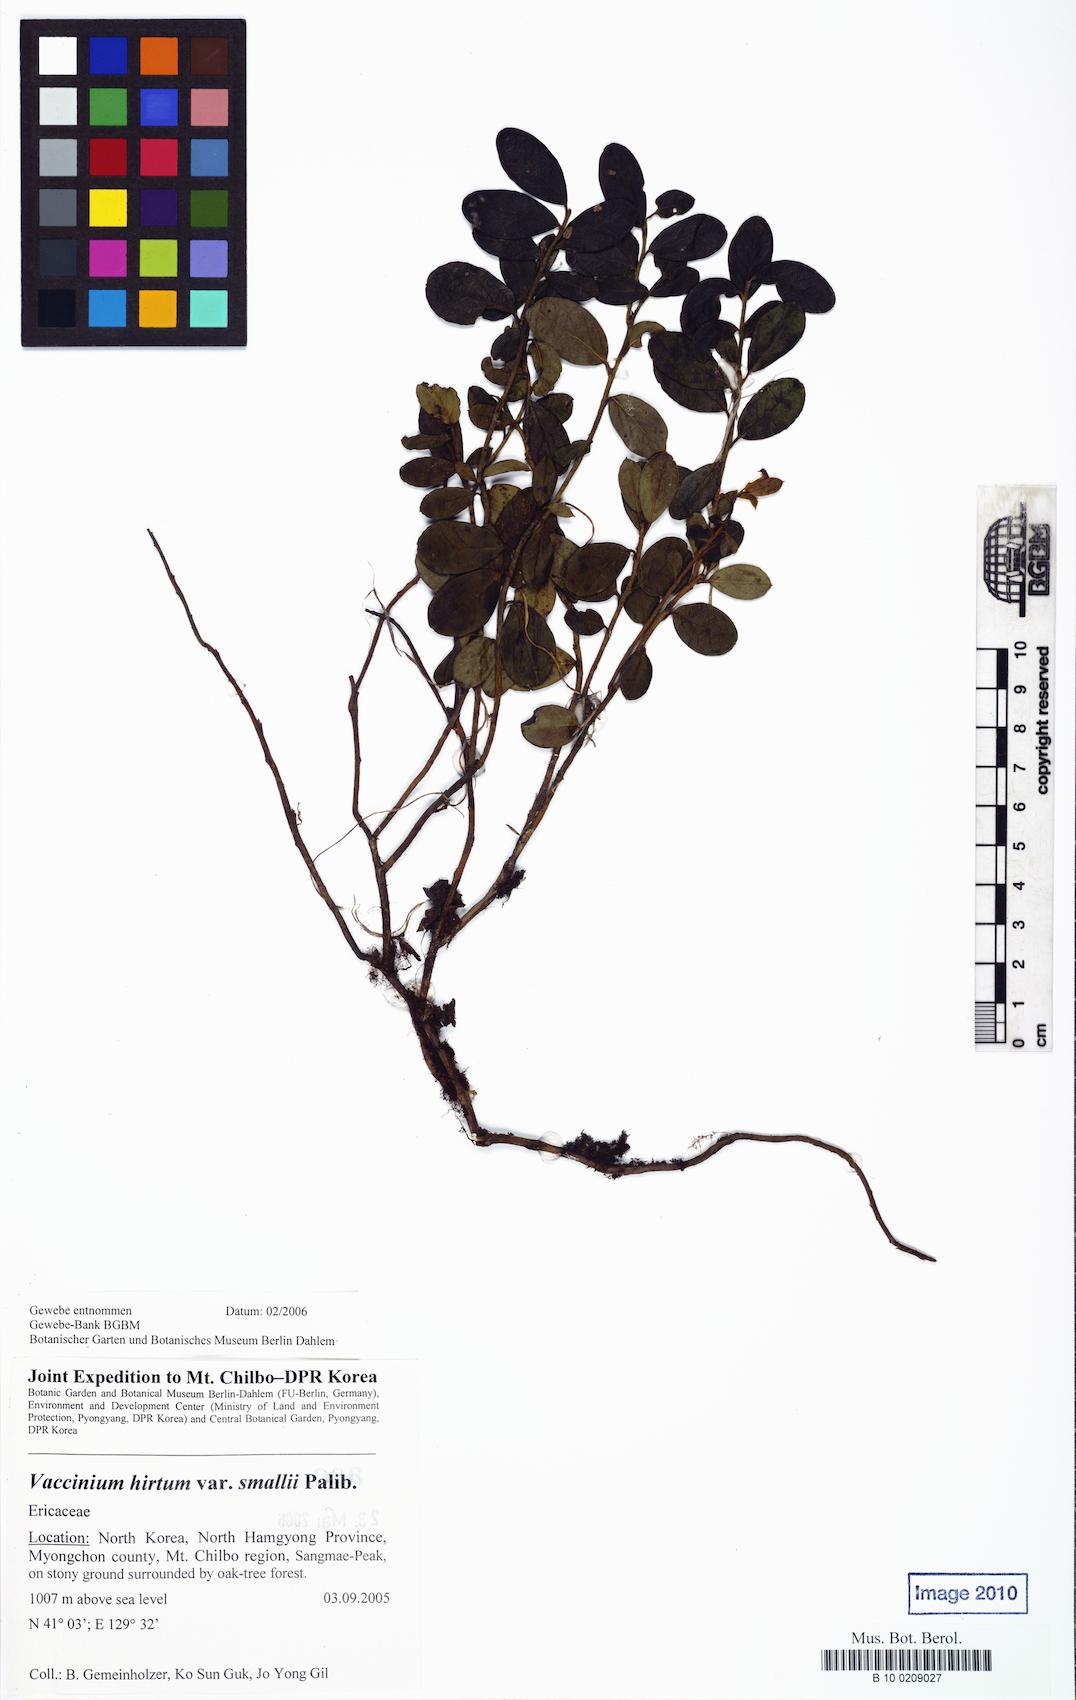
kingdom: Plantae
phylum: Tracheophyta
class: Magnoliopsida
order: Ericales
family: Ericaceae
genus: Vaccinium
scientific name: Vaccinium hirtum
